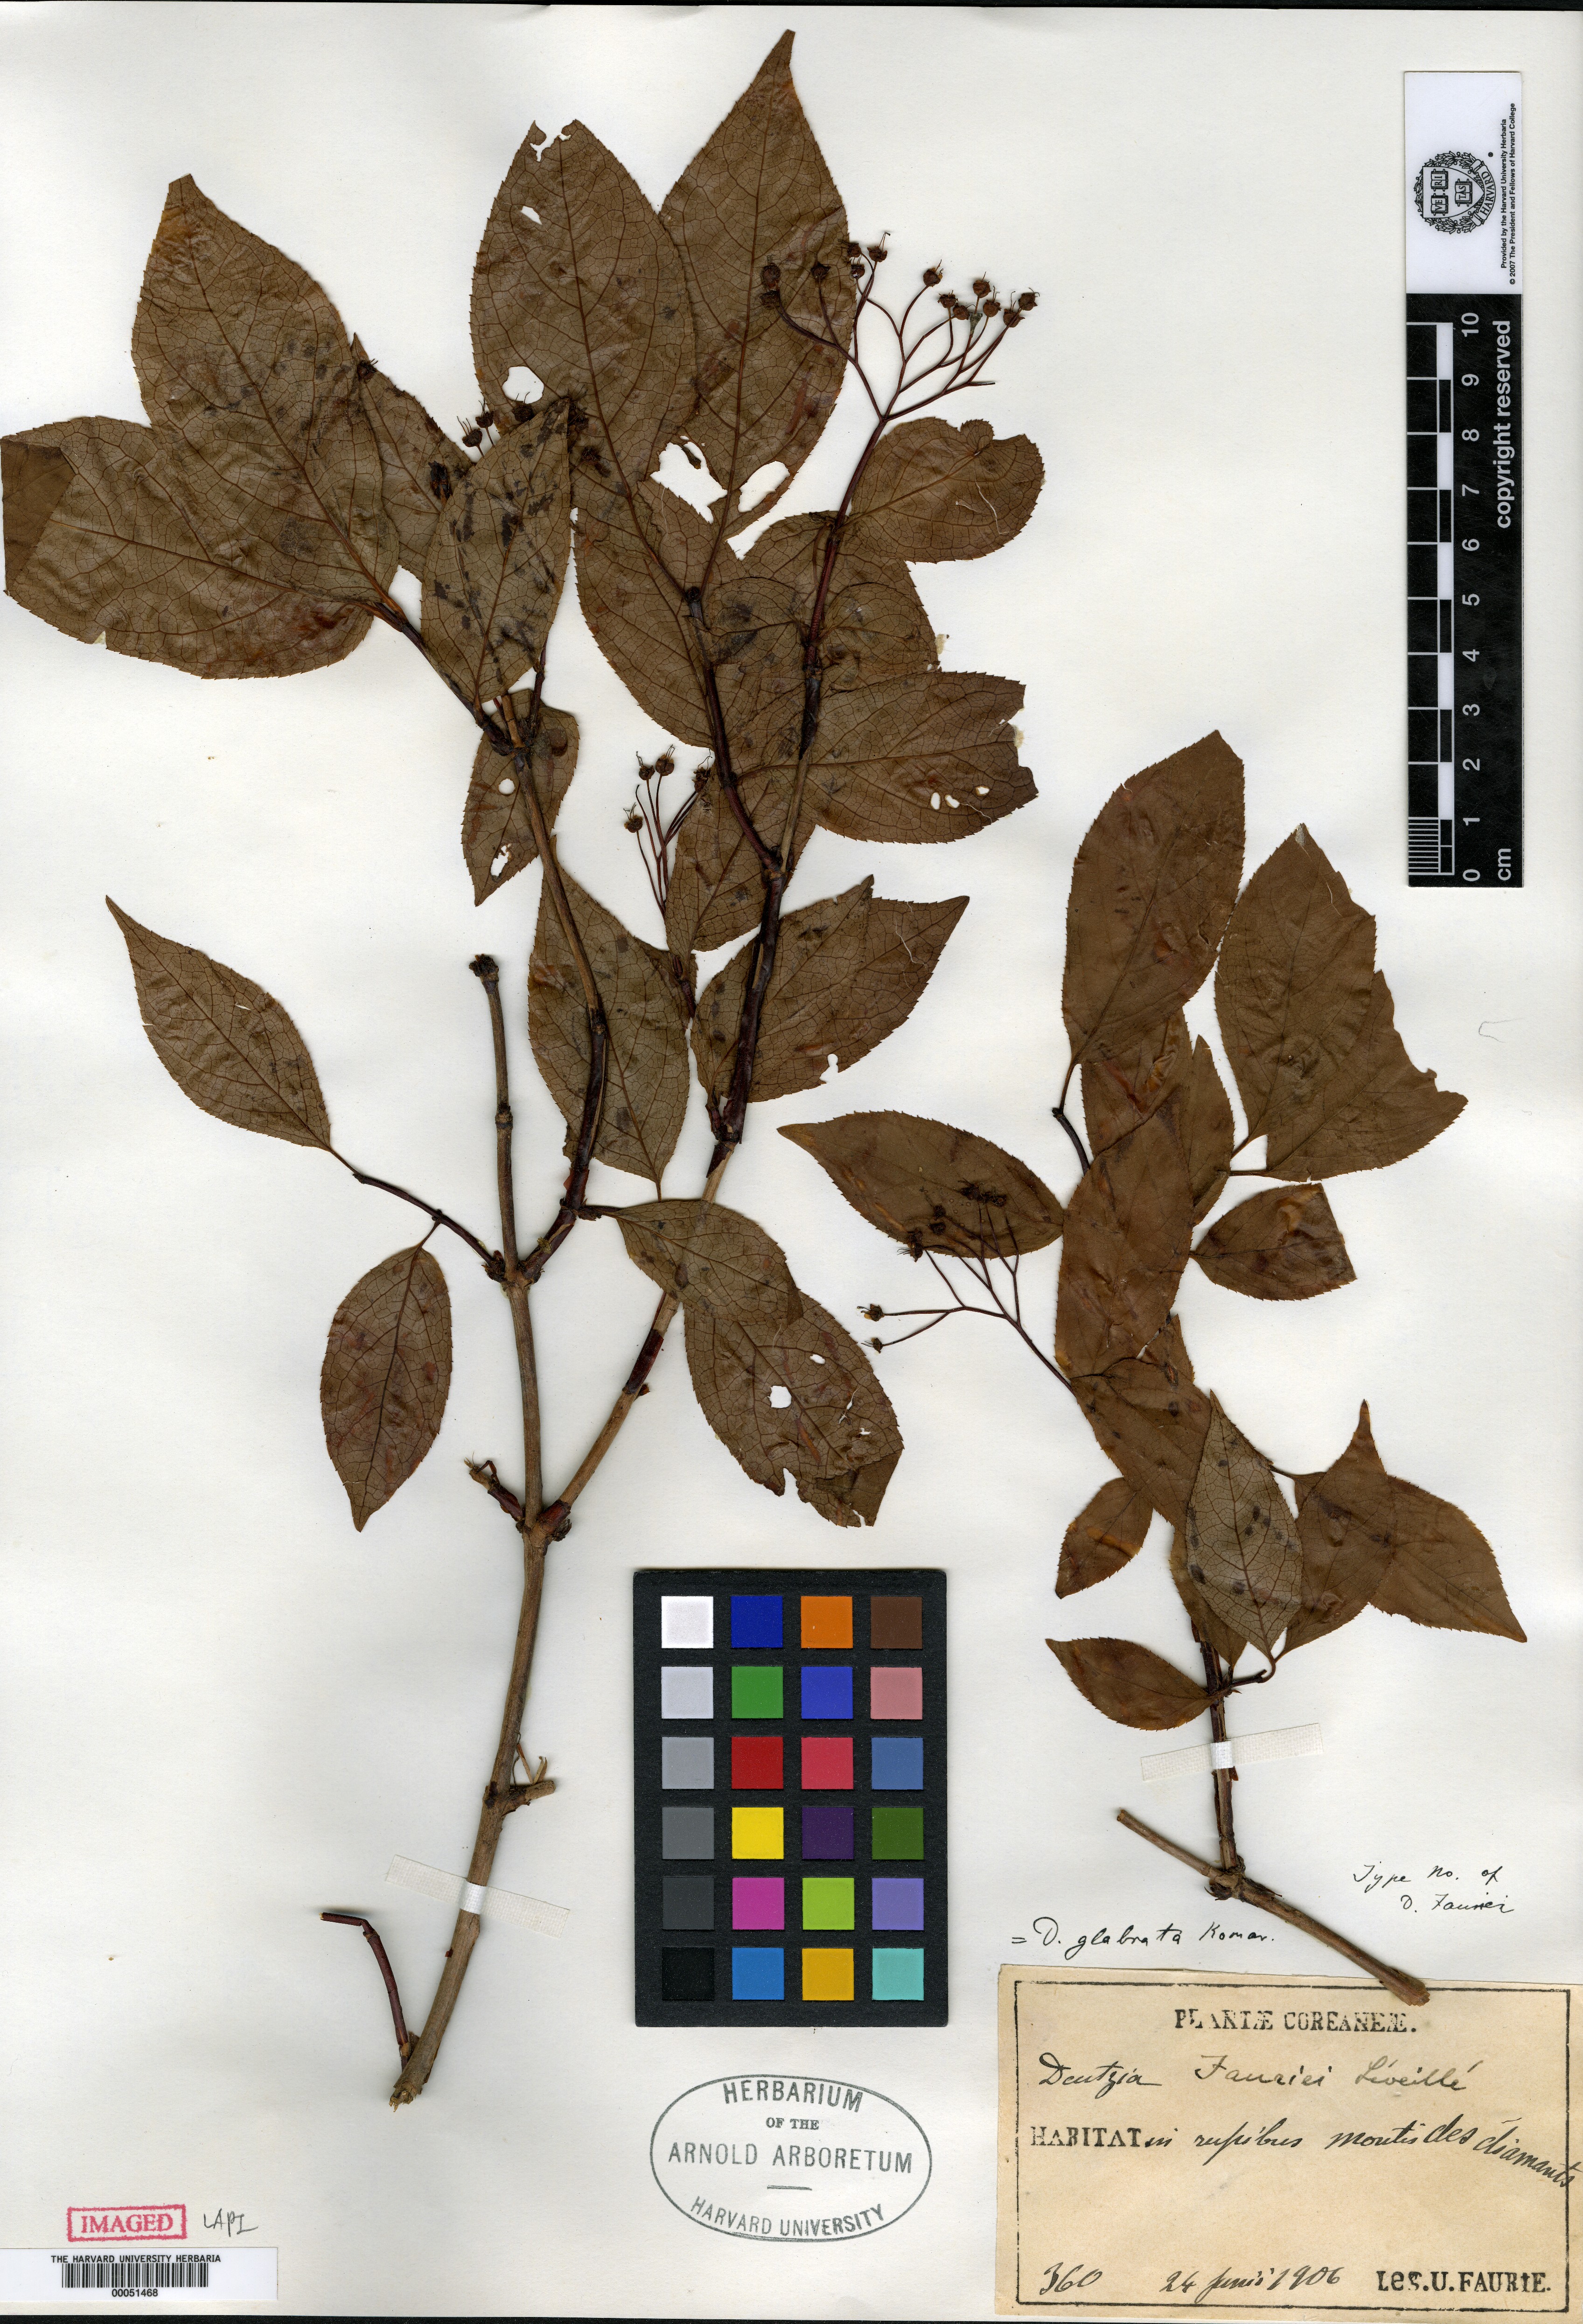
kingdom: Plantae
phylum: Tracheophyta
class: Magnoliopsida
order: Cornales
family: Hydrangeaceae
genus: Deutzia
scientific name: Deutzia glabrata
